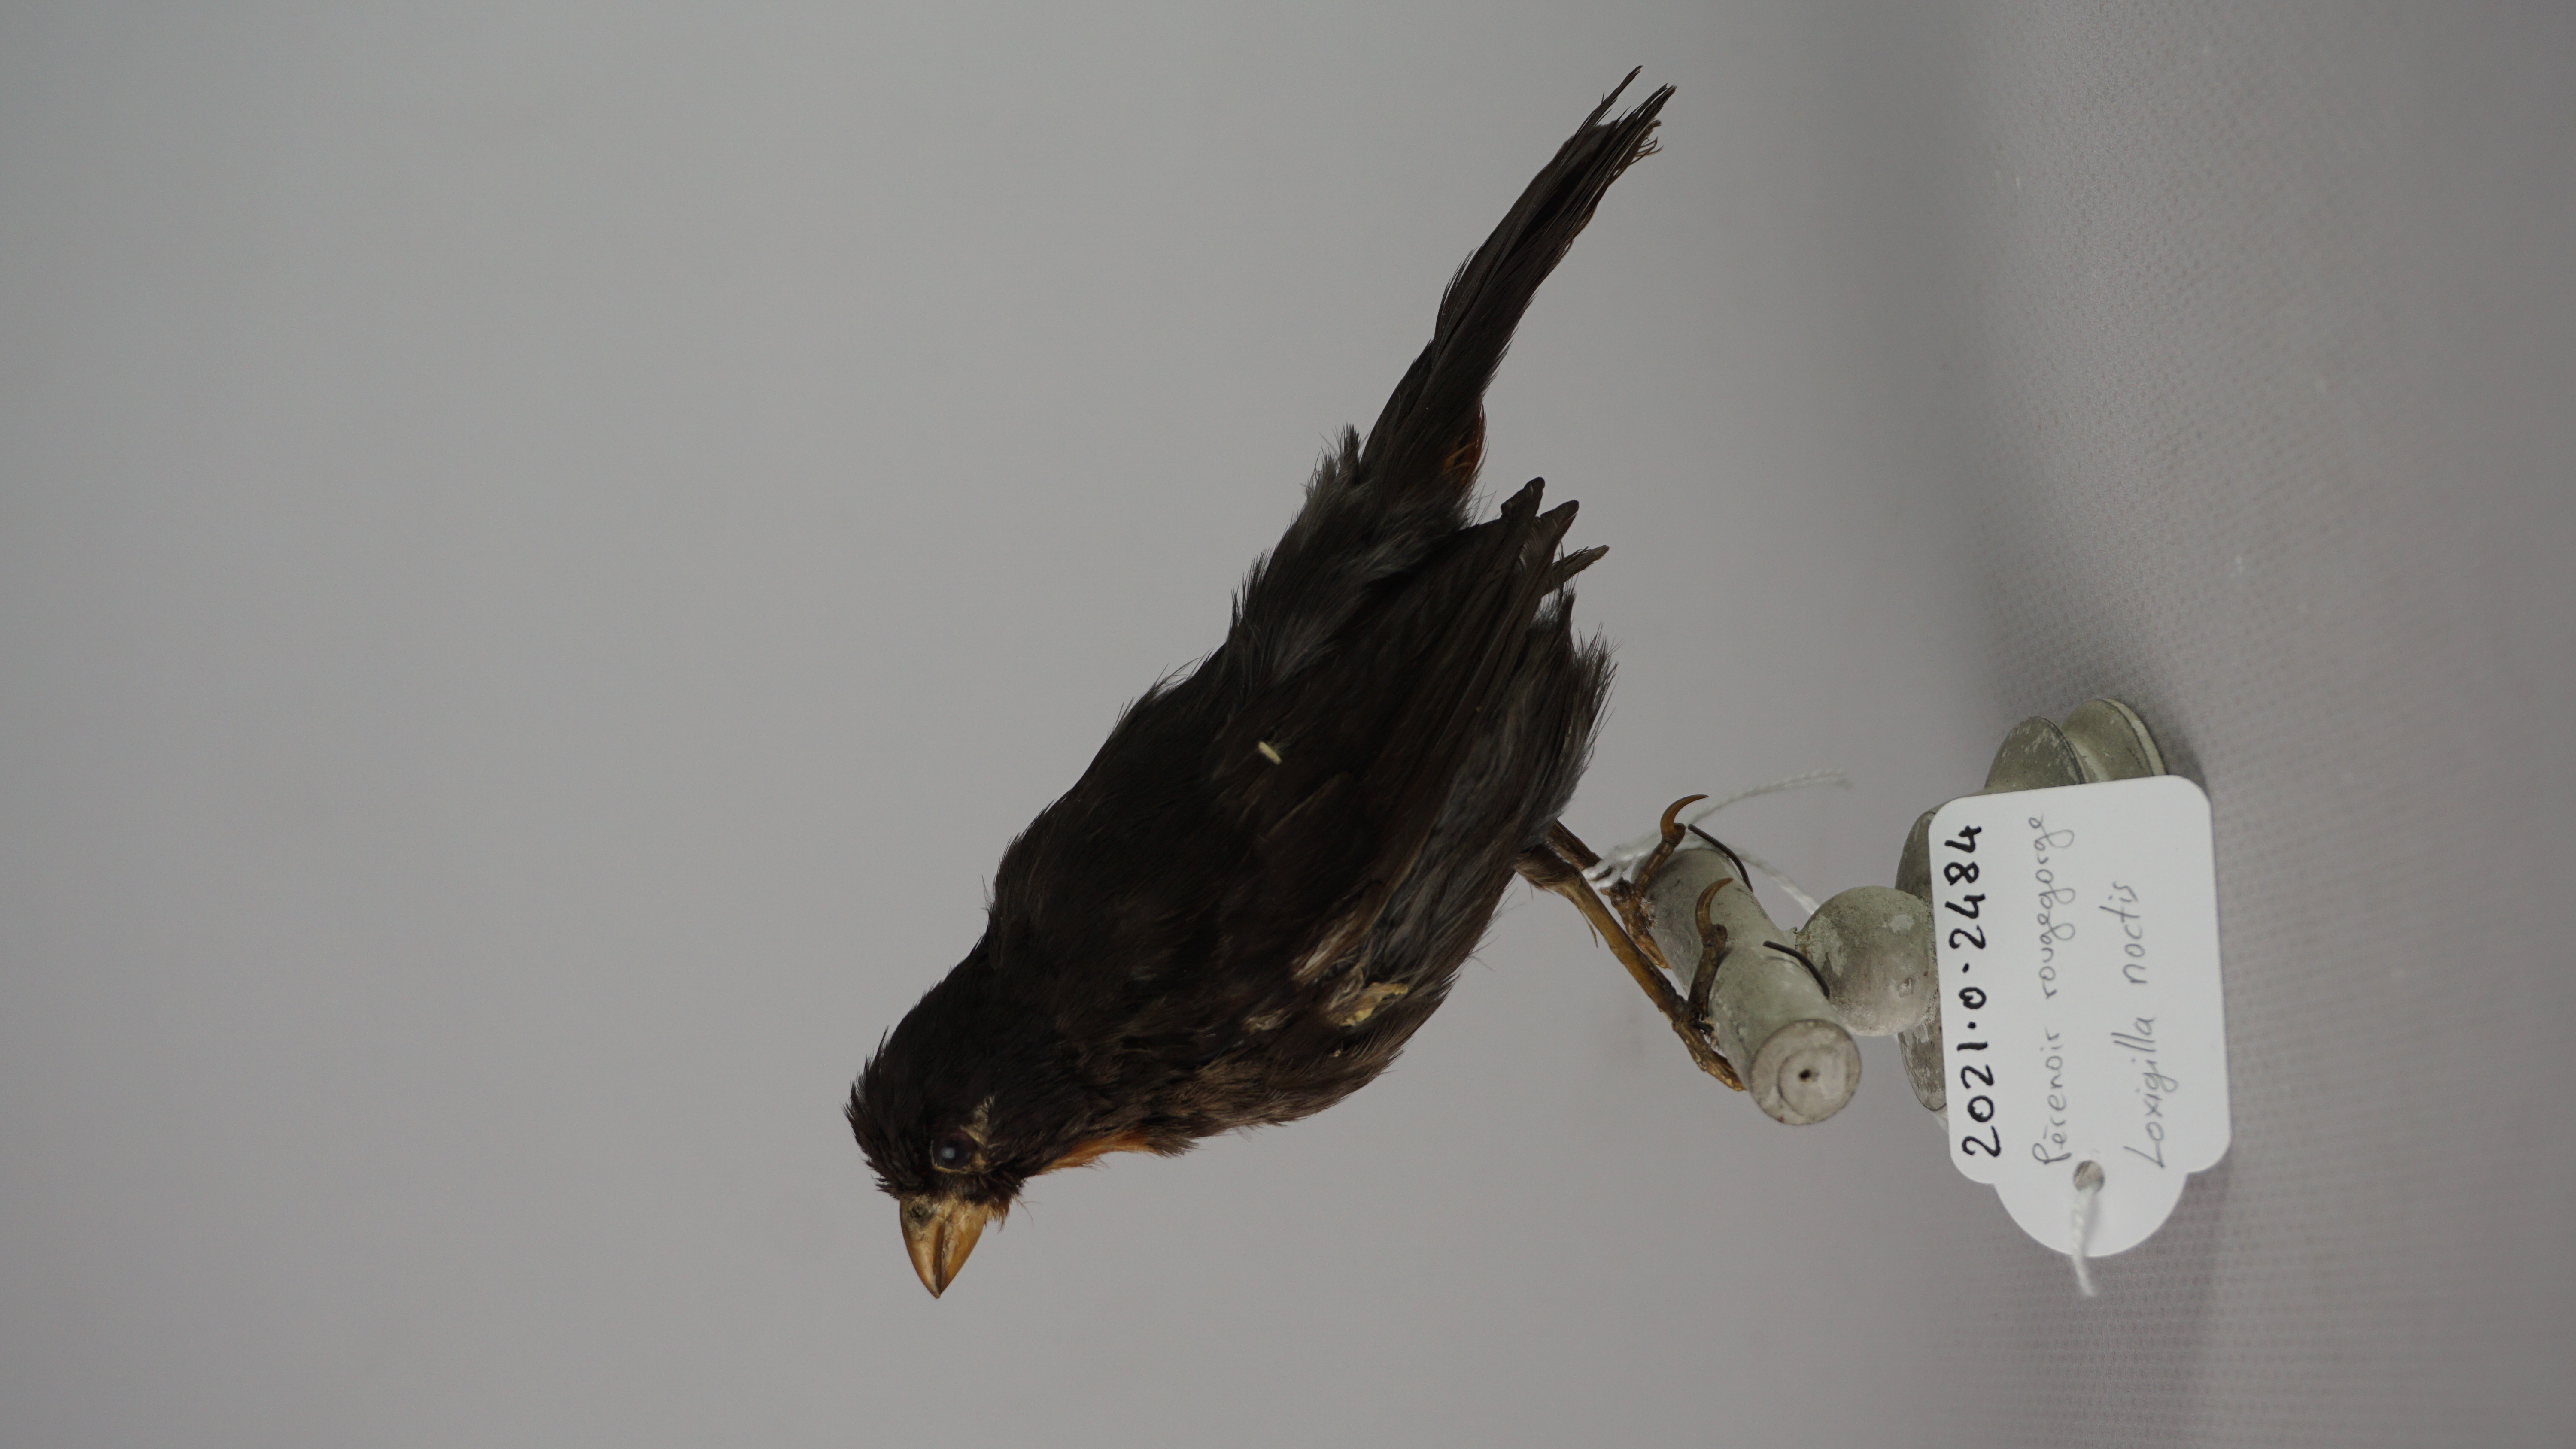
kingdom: Animalia
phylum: Chordata
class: Aves
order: Passeriformes
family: Thraupidae
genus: Loxigilla
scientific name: Loxigilla noctis
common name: Lesser antillean bullfinch
